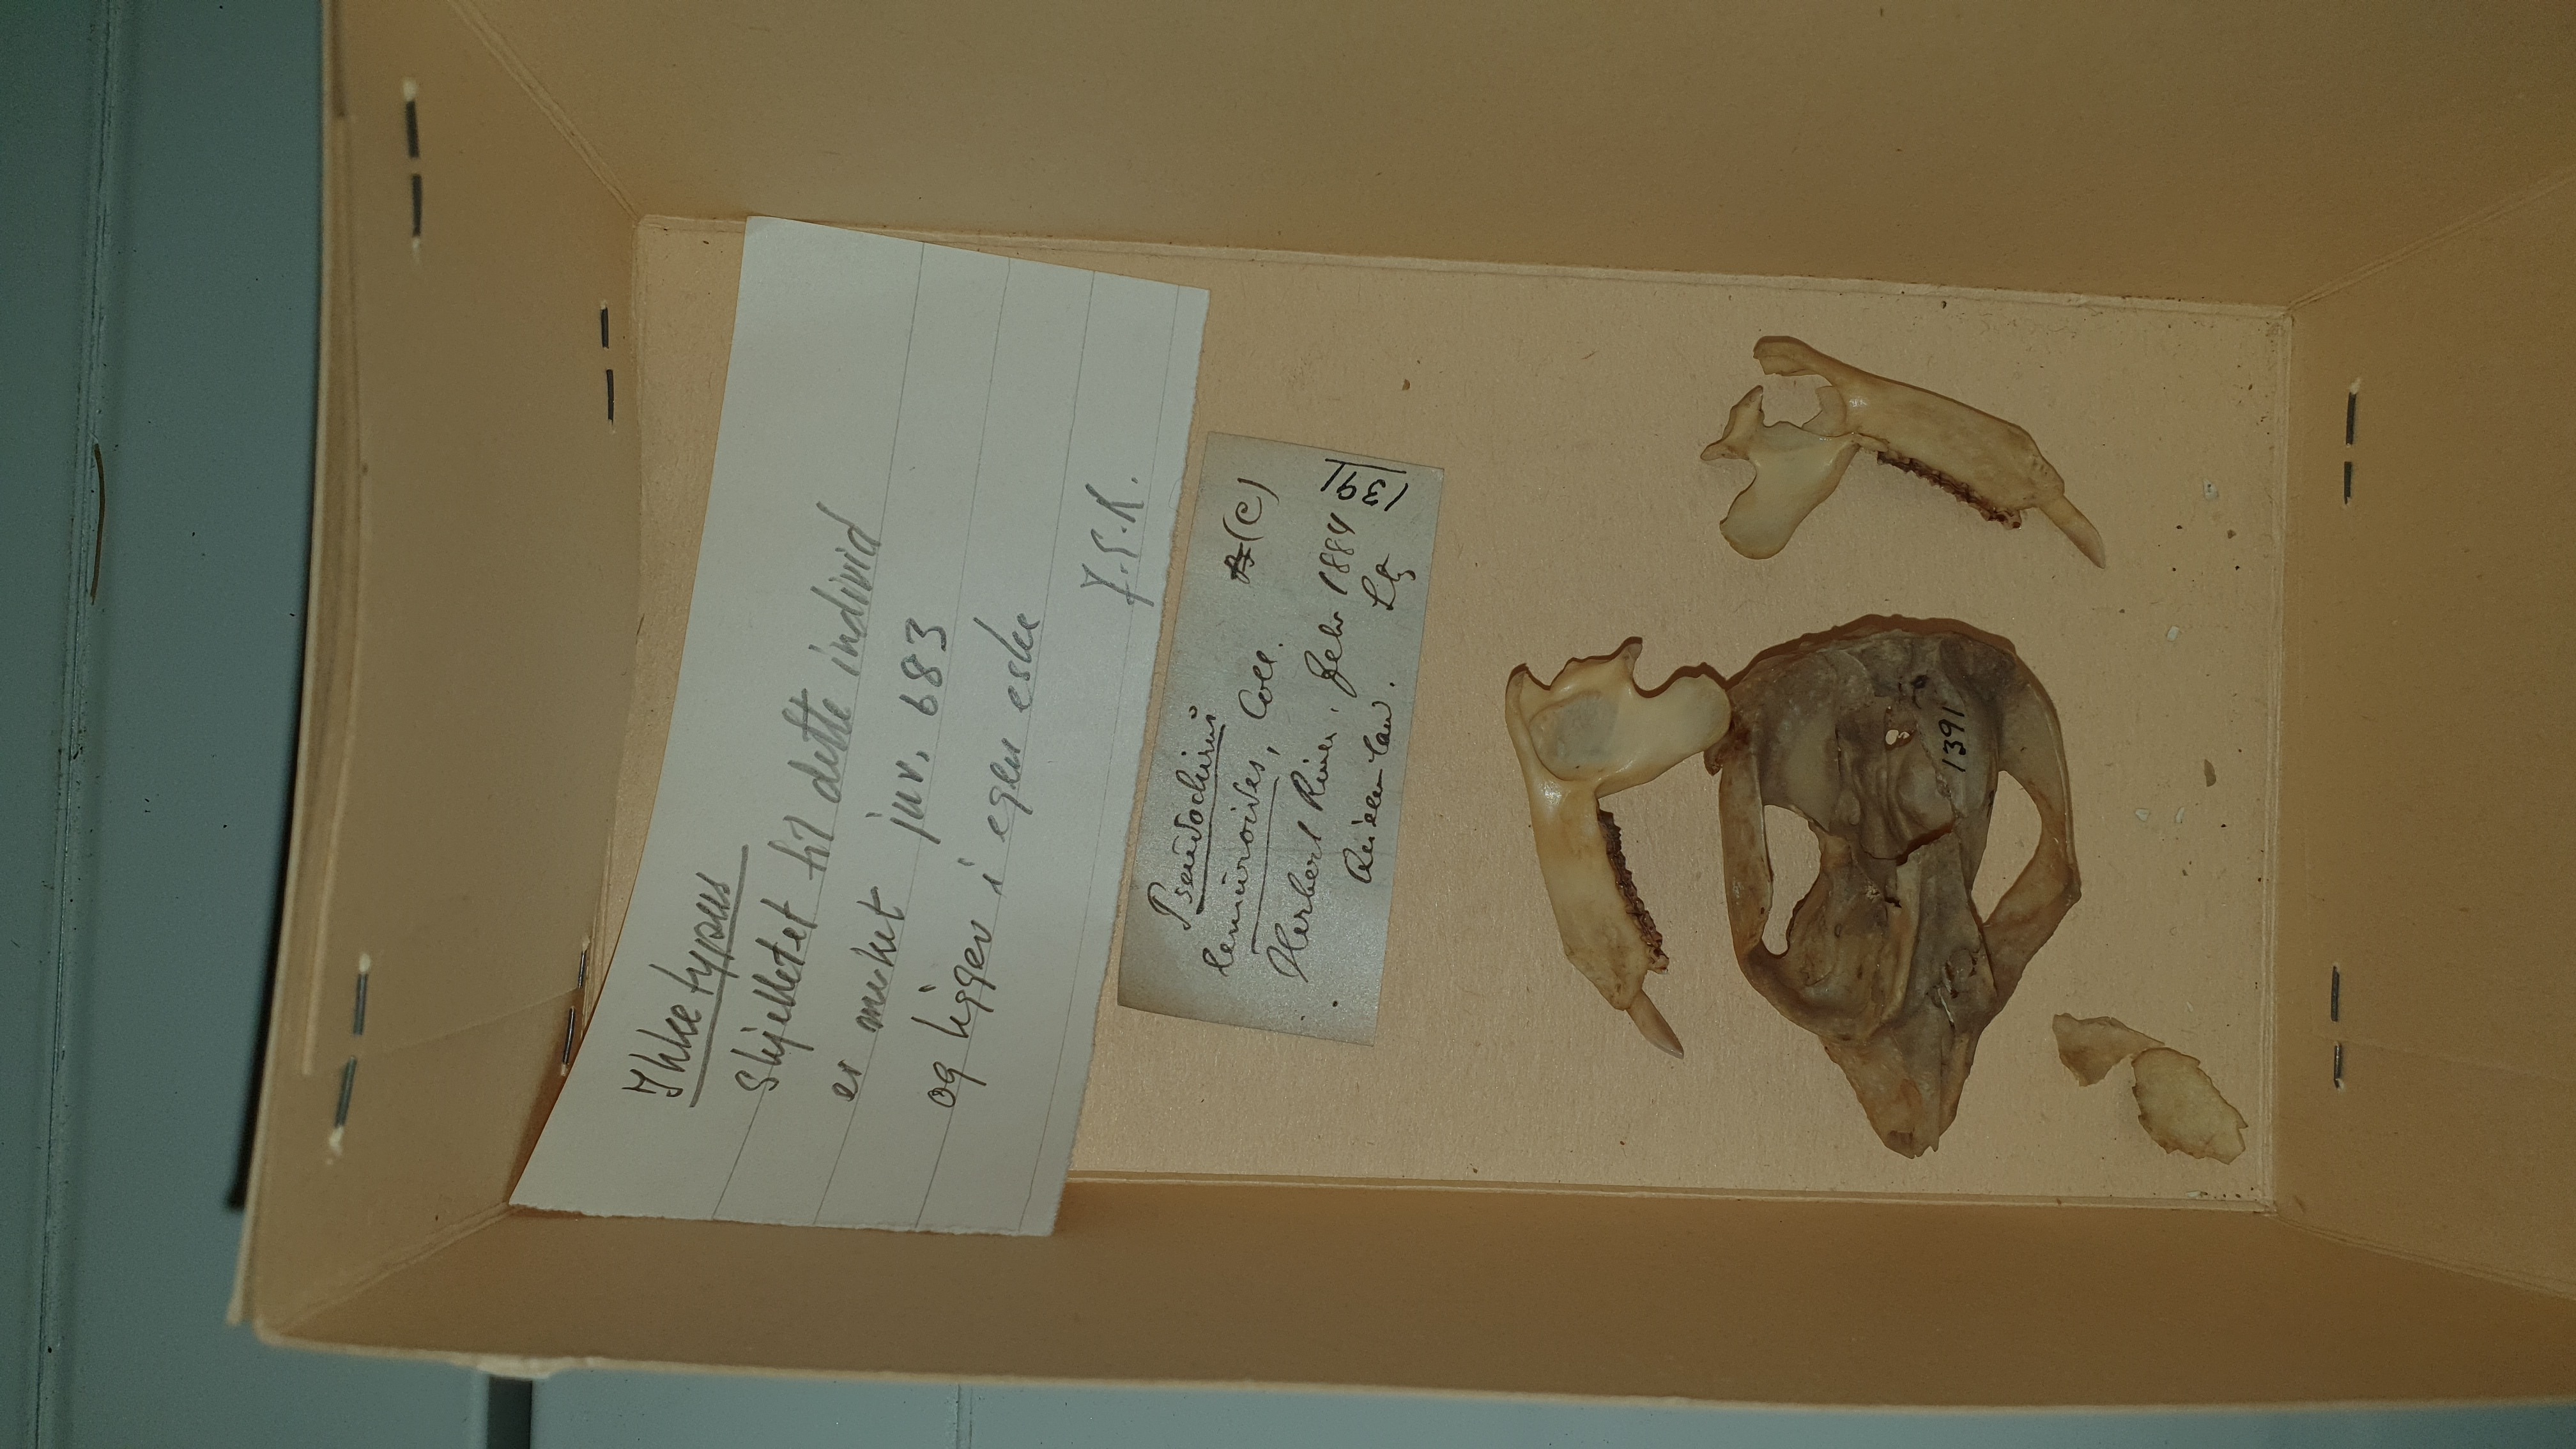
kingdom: Animalia
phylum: Chordata
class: Mammalia
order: Diprotodontia
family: Pseudocheiridae
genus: Hemibelideus
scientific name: Hemibelideus lemuroides
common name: Lemur-like ringtail
